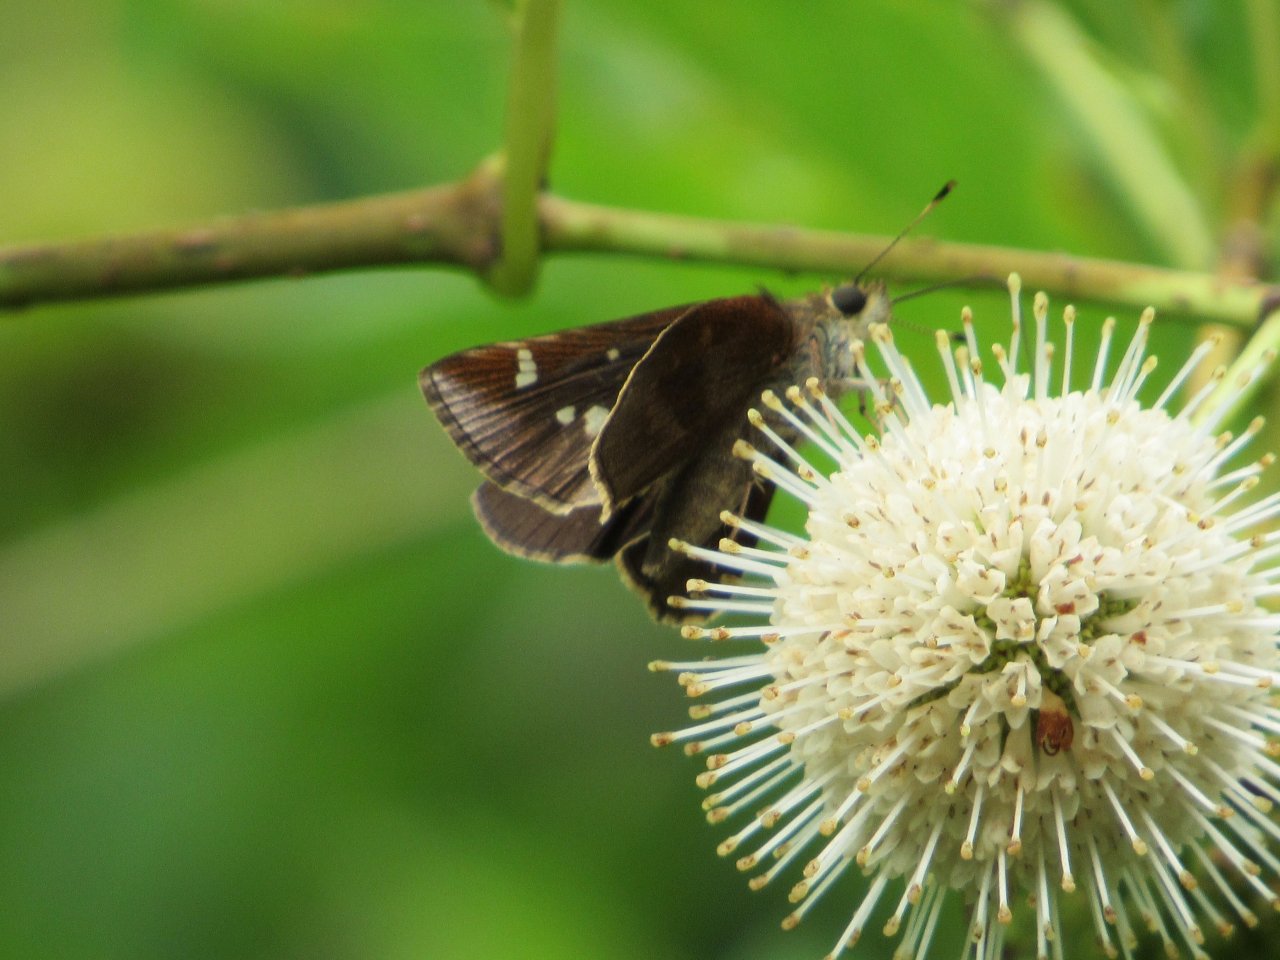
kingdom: Animalia
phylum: Arthropoda
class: Insecta
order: Lepidoptera
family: Hesperiidae
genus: Lerema
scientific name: Lerema accius
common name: Clouded Skipper
